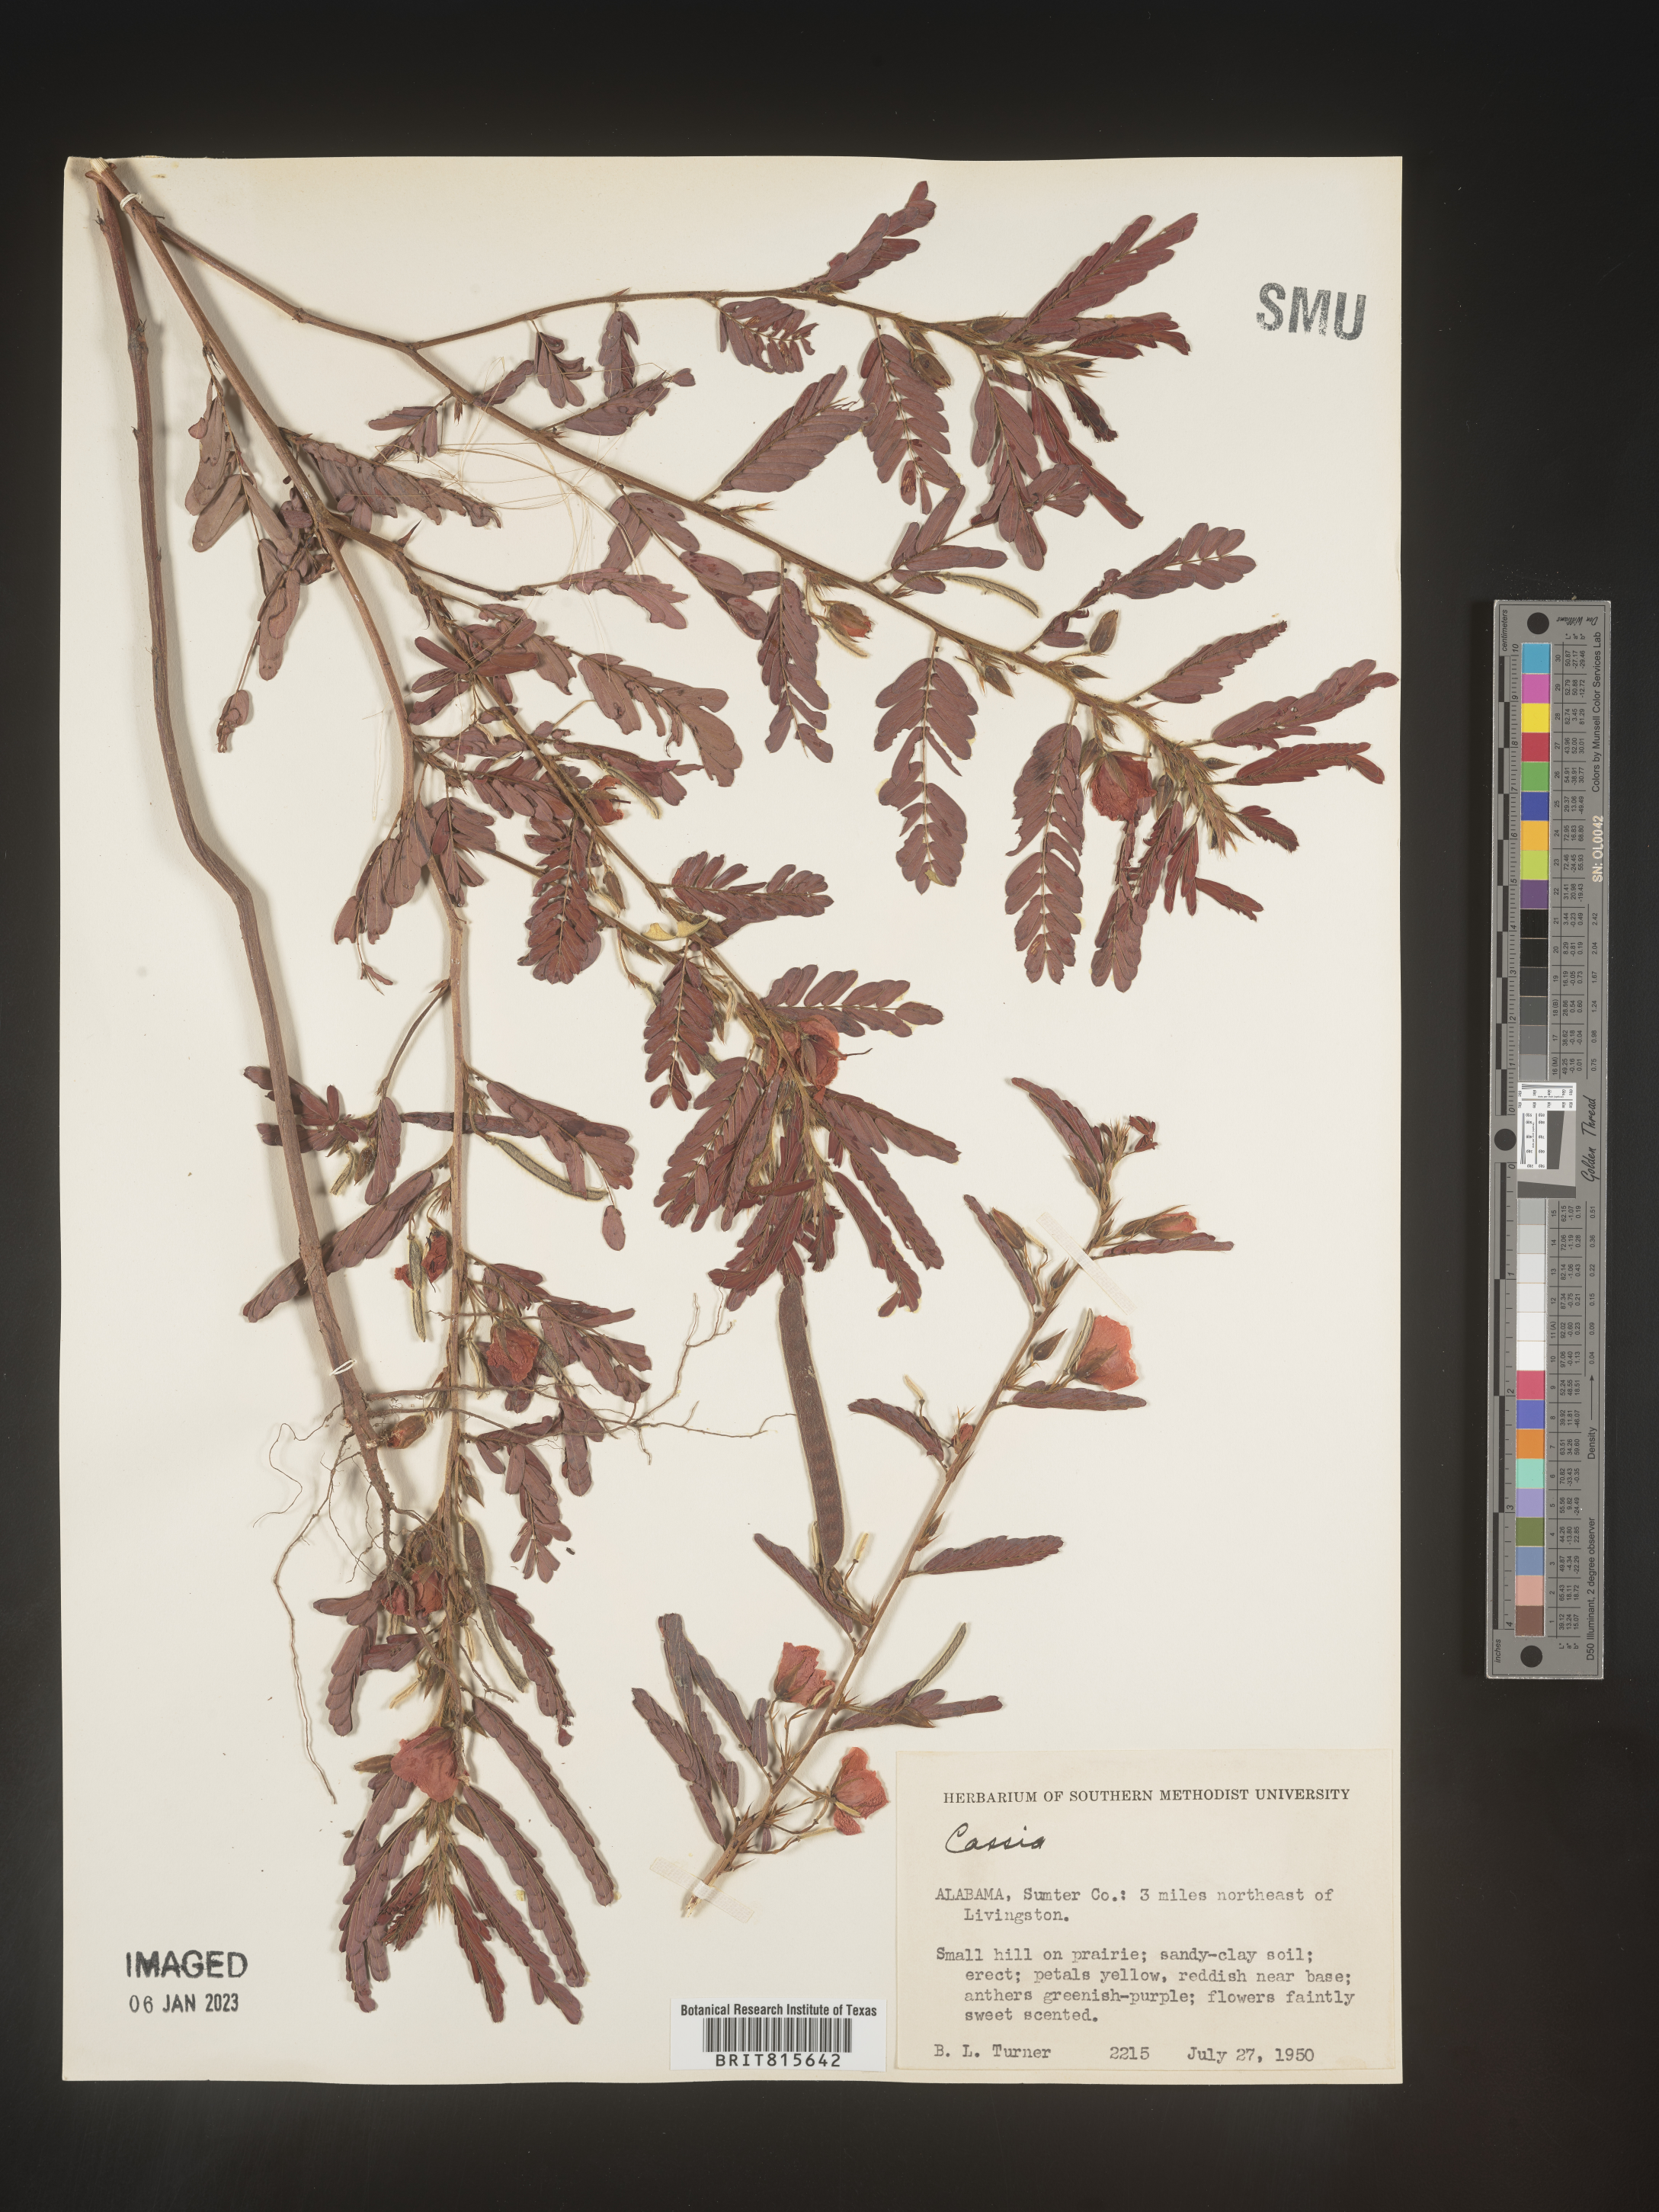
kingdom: Plantae
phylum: Tracheophyta
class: Magnoliopsida
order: Fabales
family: Fabaceae
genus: Cassia
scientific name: Cassia
